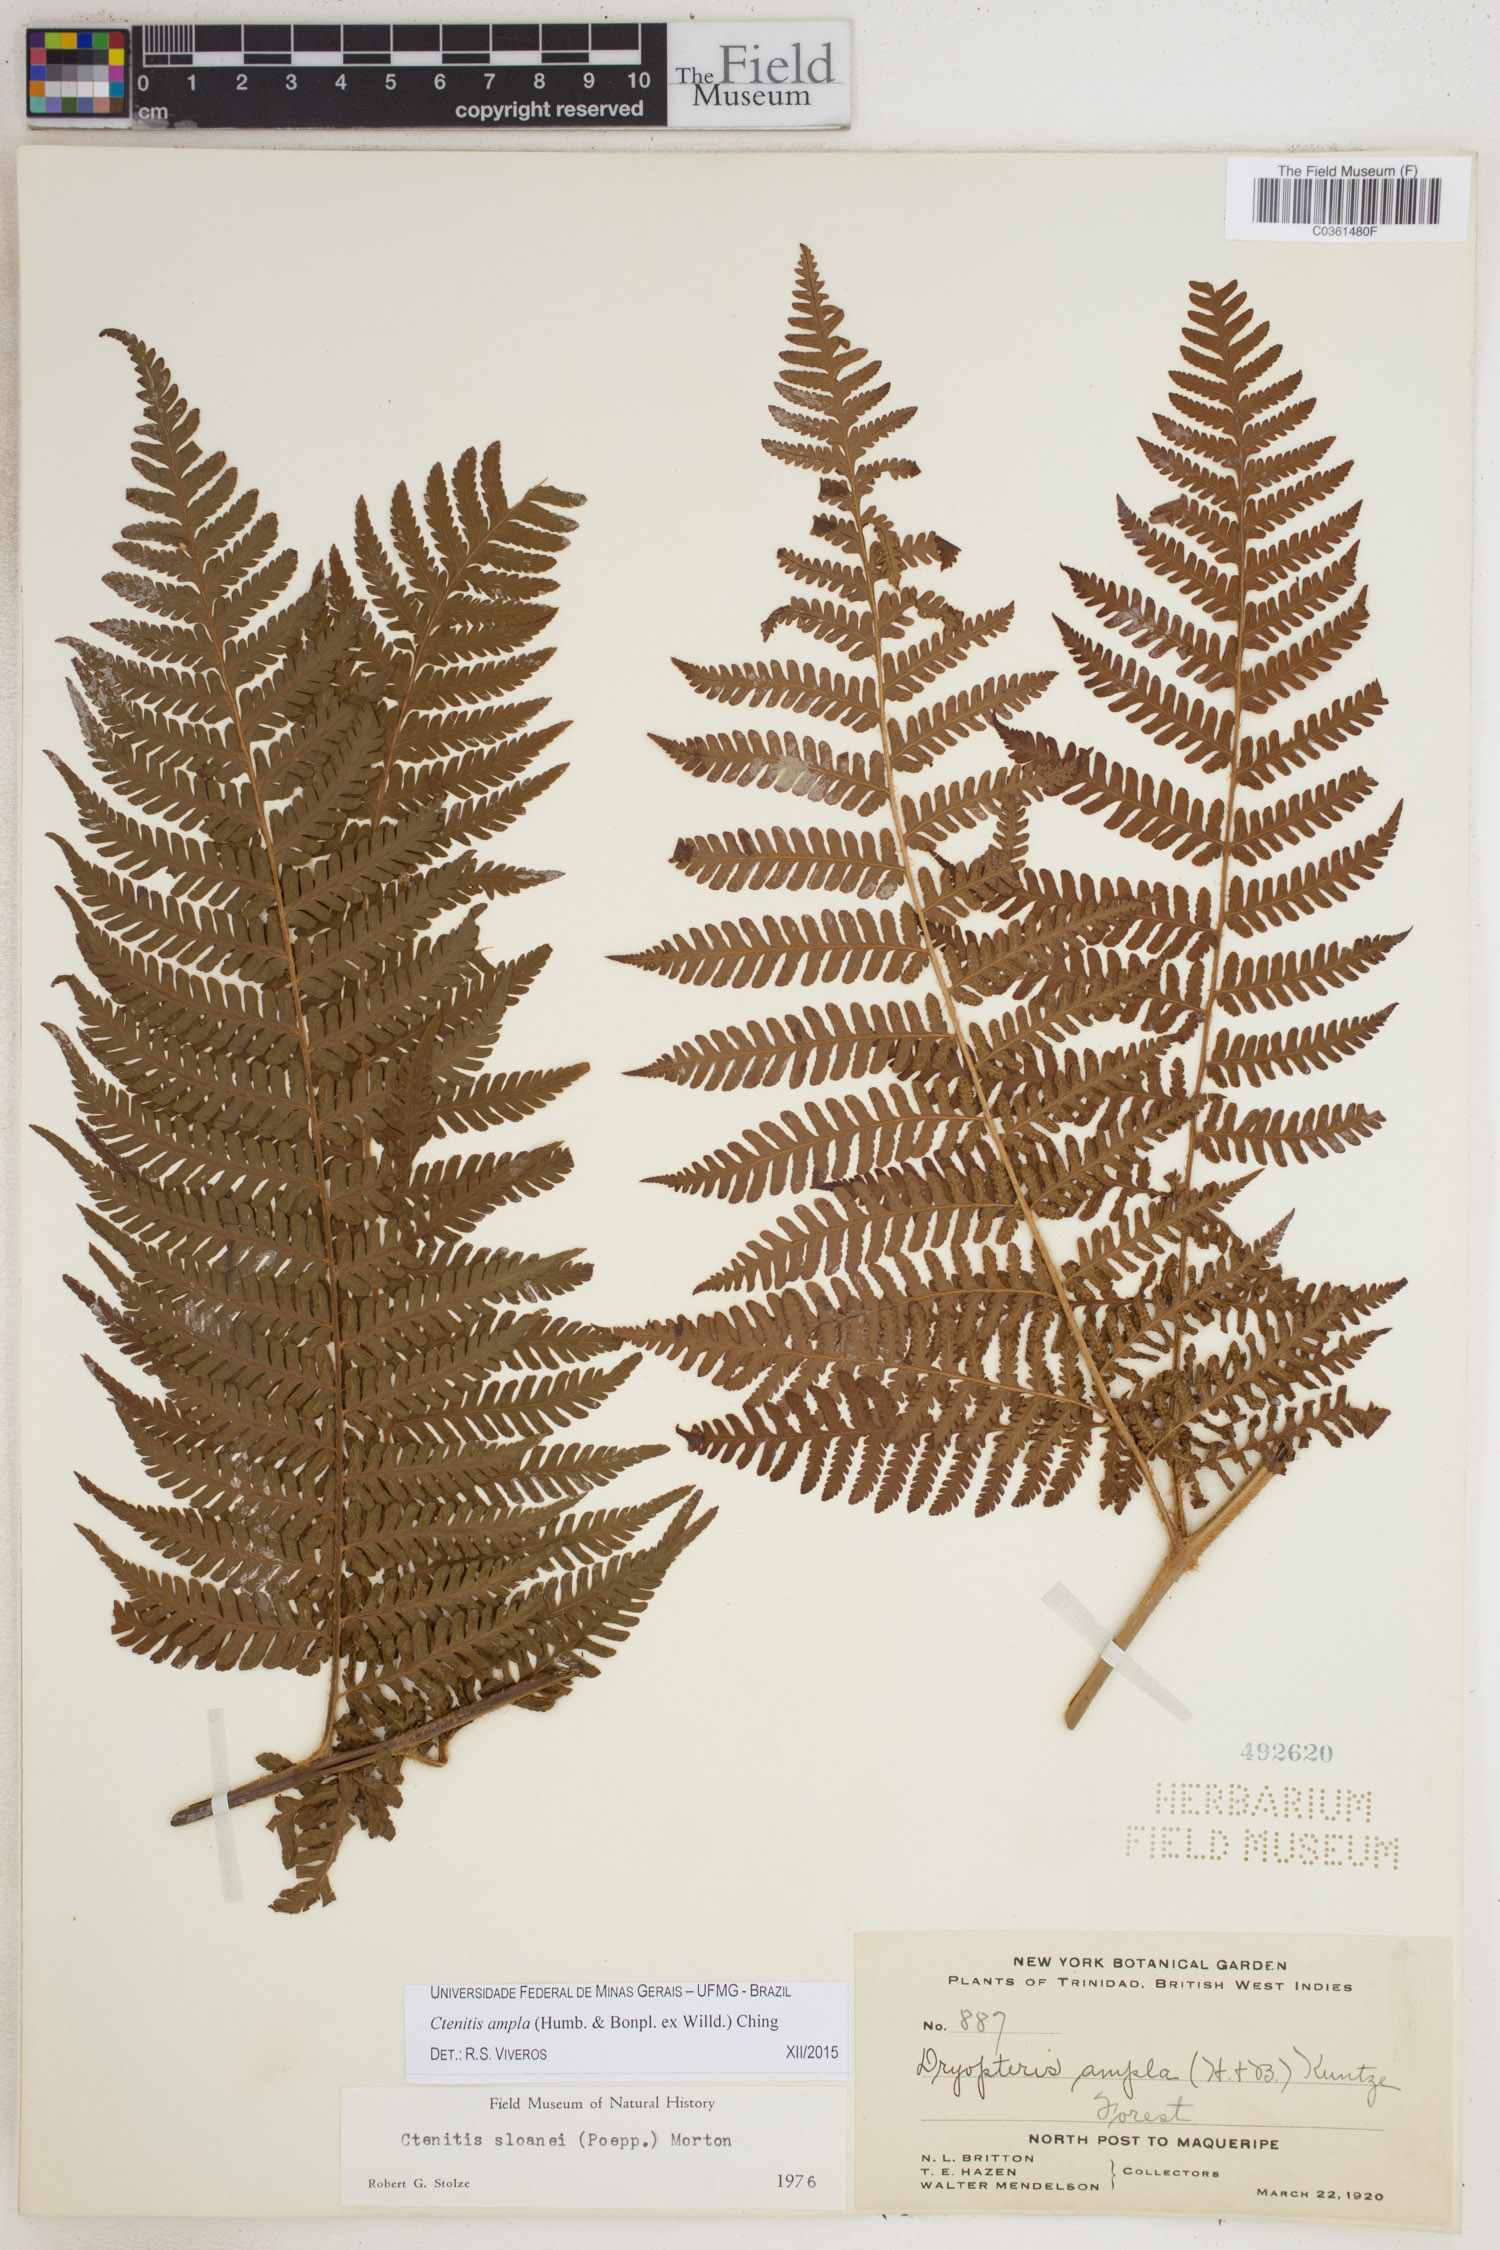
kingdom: Plantae
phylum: Tracheophyta
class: Polypodiopsida
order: Polypodiales
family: Dryopteridaceae
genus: Ctenitis
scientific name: Ctenitis sloanei
